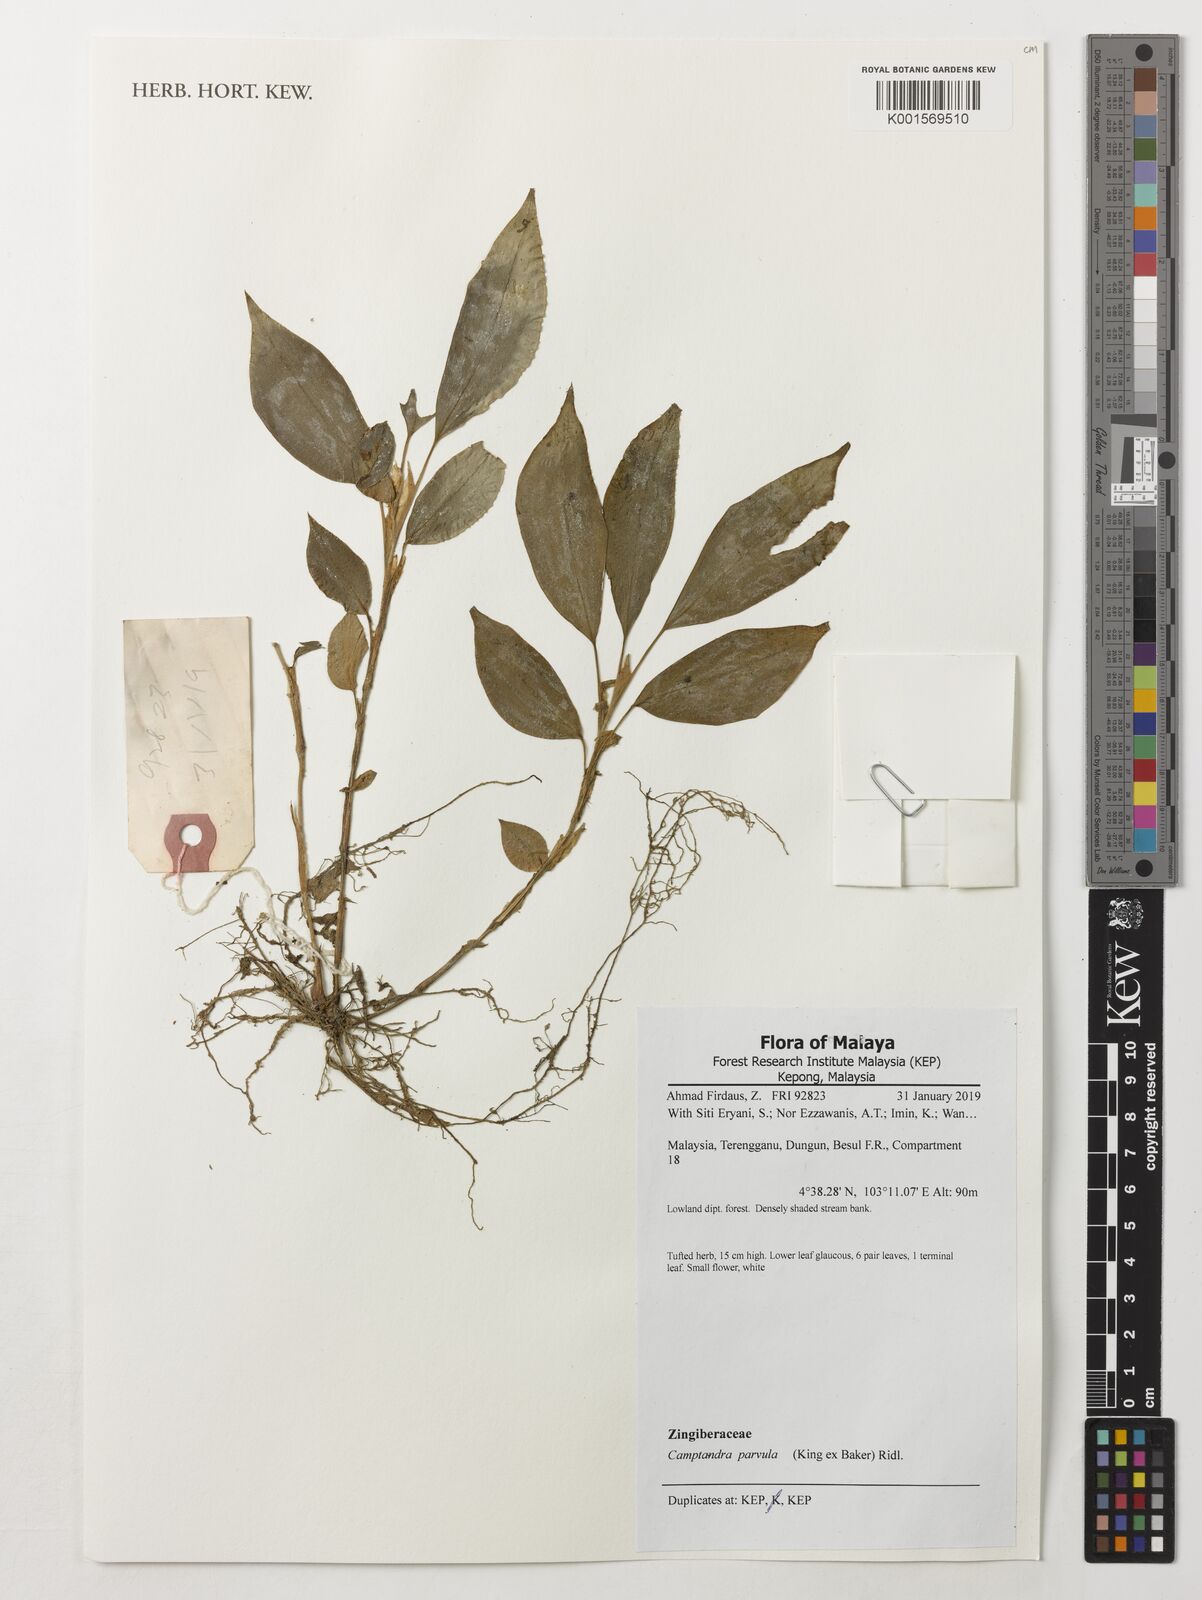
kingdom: Plantae
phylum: Tracheophyta
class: Liliopsida
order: Zingiberales
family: Zingiberaceae
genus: Camptandra
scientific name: Camptandra parvula
